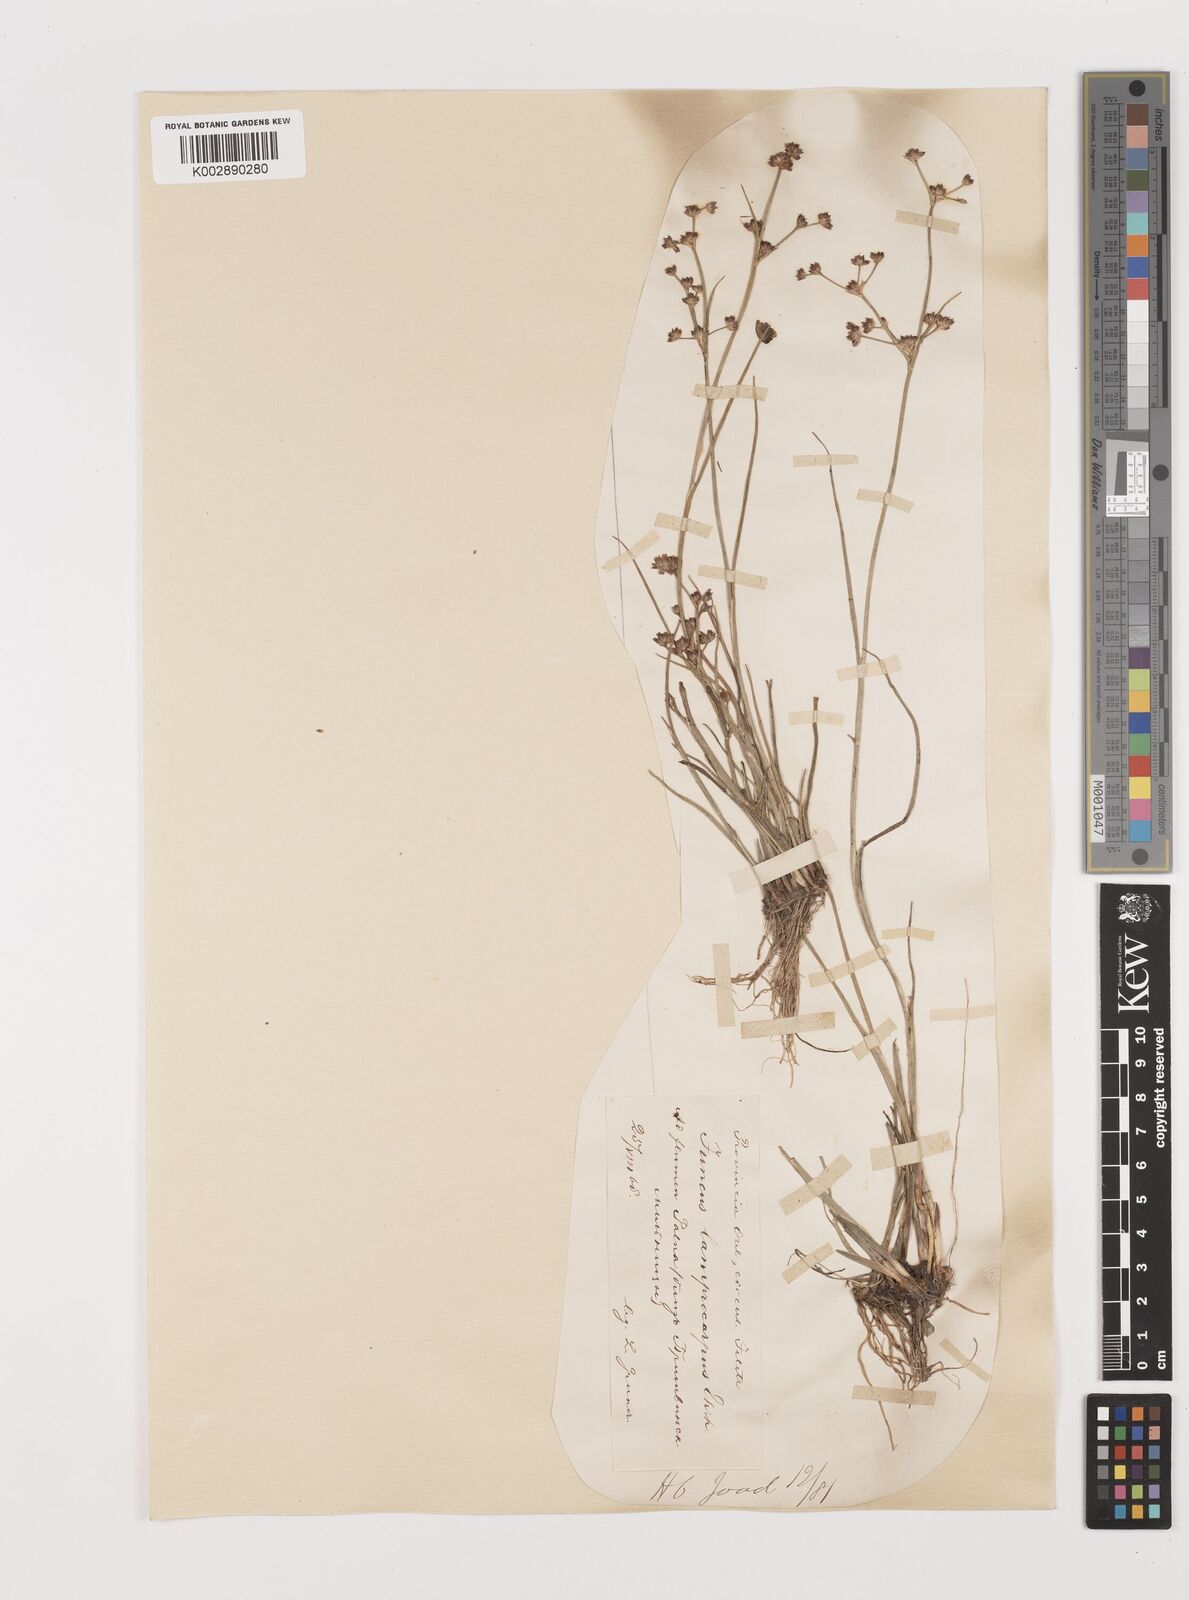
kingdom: Plantae
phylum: Tracheophyta
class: Liliopsida
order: Poales
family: Juncaceae
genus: Juncus
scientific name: Juncus articulatus
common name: Jointed rush
